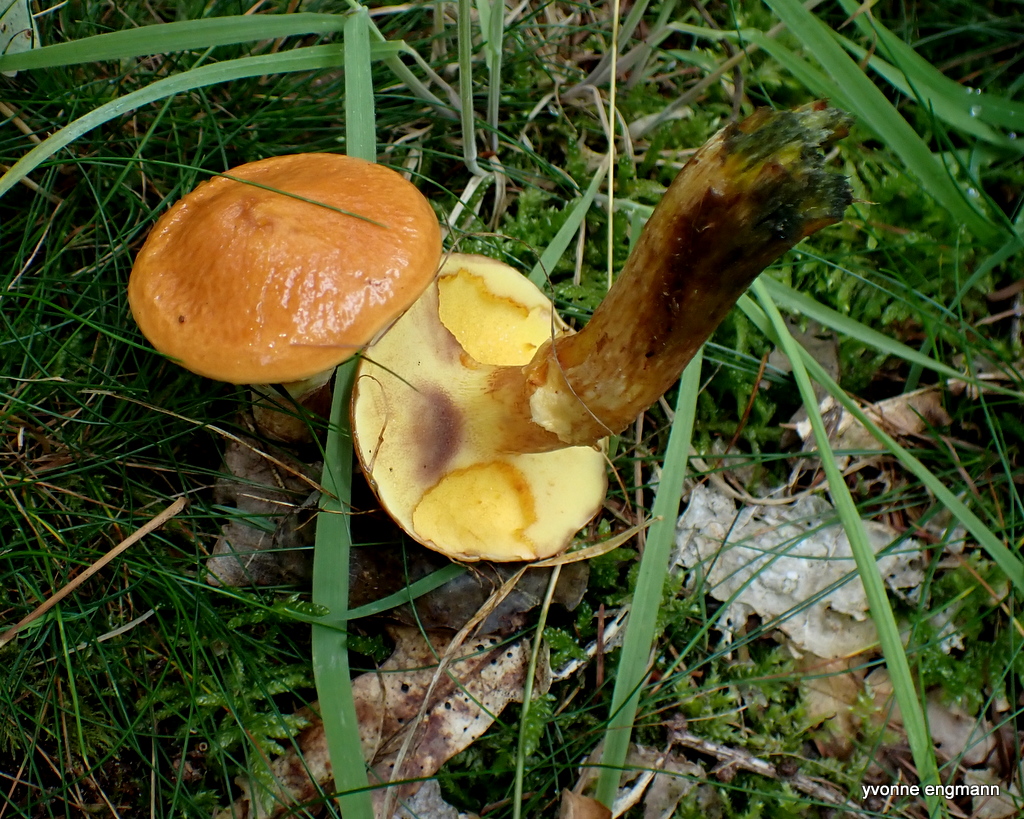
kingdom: Fungi
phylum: Basidiomycota
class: Agaricomycetes
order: Boletales
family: Suillaceae
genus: Suillus
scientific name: Suillus grevillei
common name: lærke-slimrørhat
